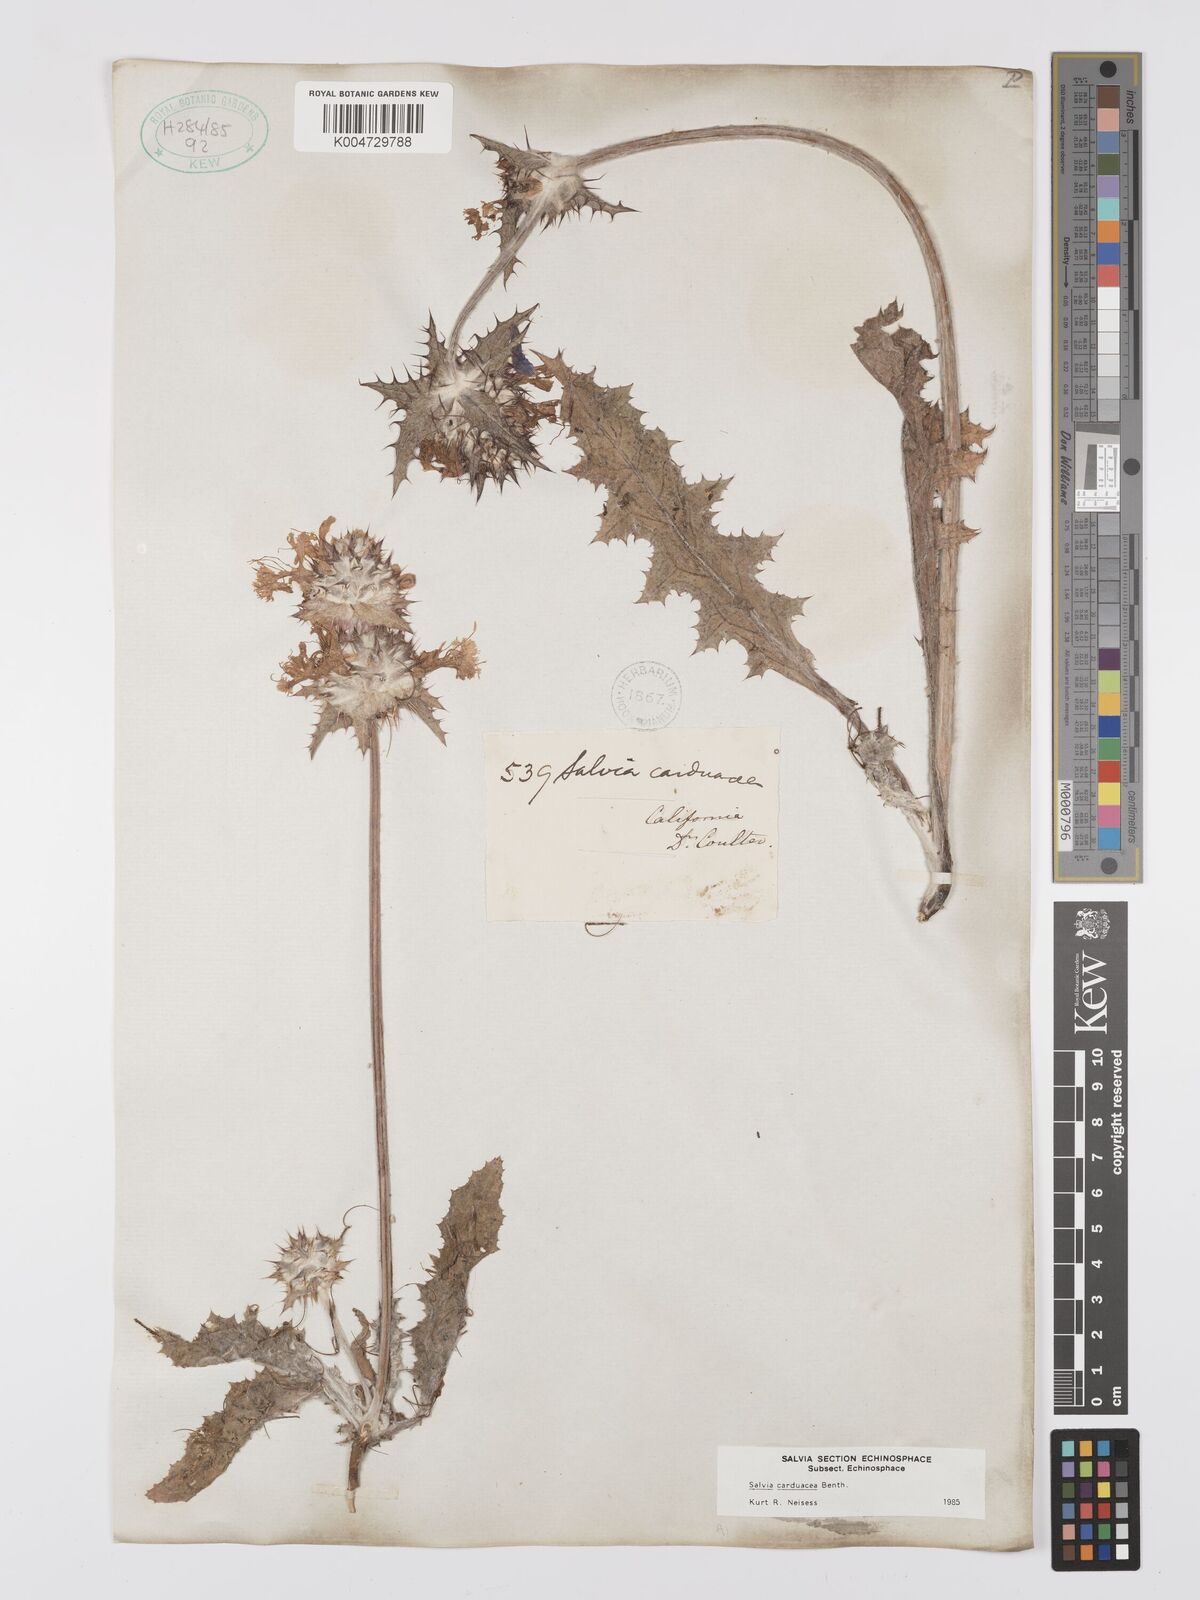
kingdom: Plantae
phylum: Tracheophyta
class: Magnoliopsida
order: Lamiales
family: Lamiaceae
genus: Salvia
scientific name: Salvia carduacea
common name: Thistle sage
